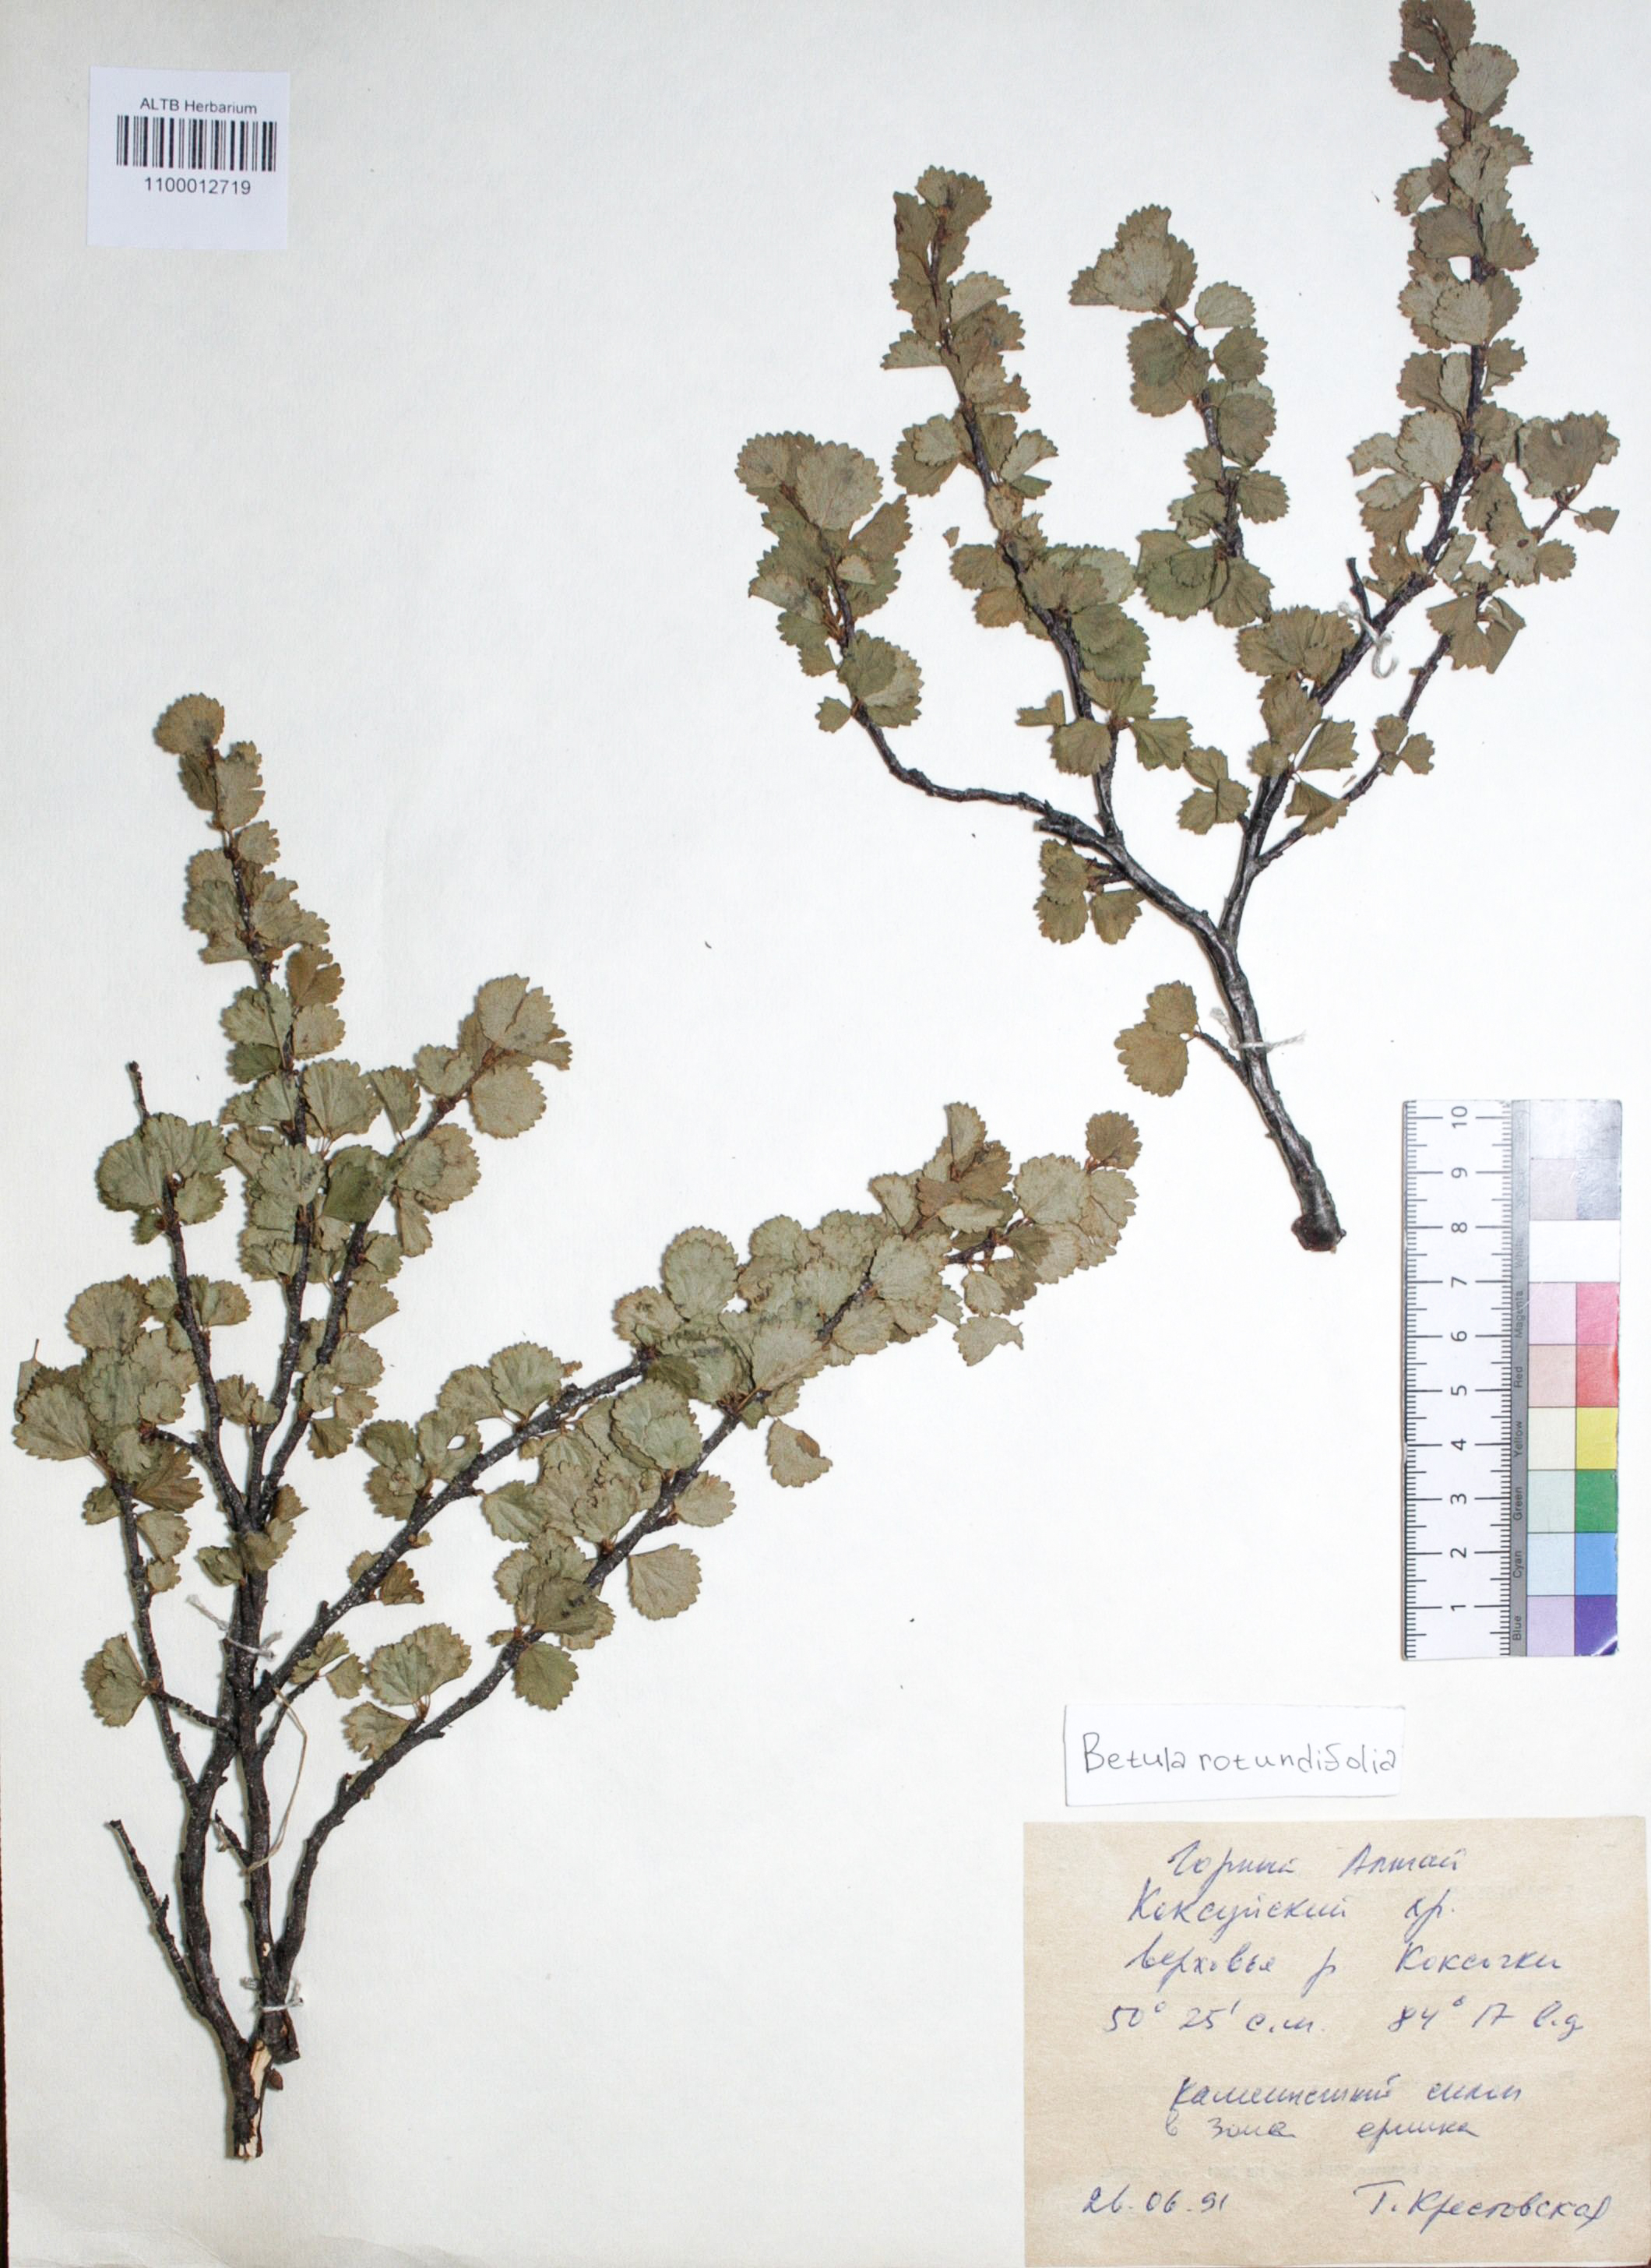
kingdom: Plantae
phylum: Tracheophyta
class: Magnoliopsida
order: Fagales
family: Betulaceae
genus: Betula
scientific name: Betula glandulosa
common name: Dwarf birch
